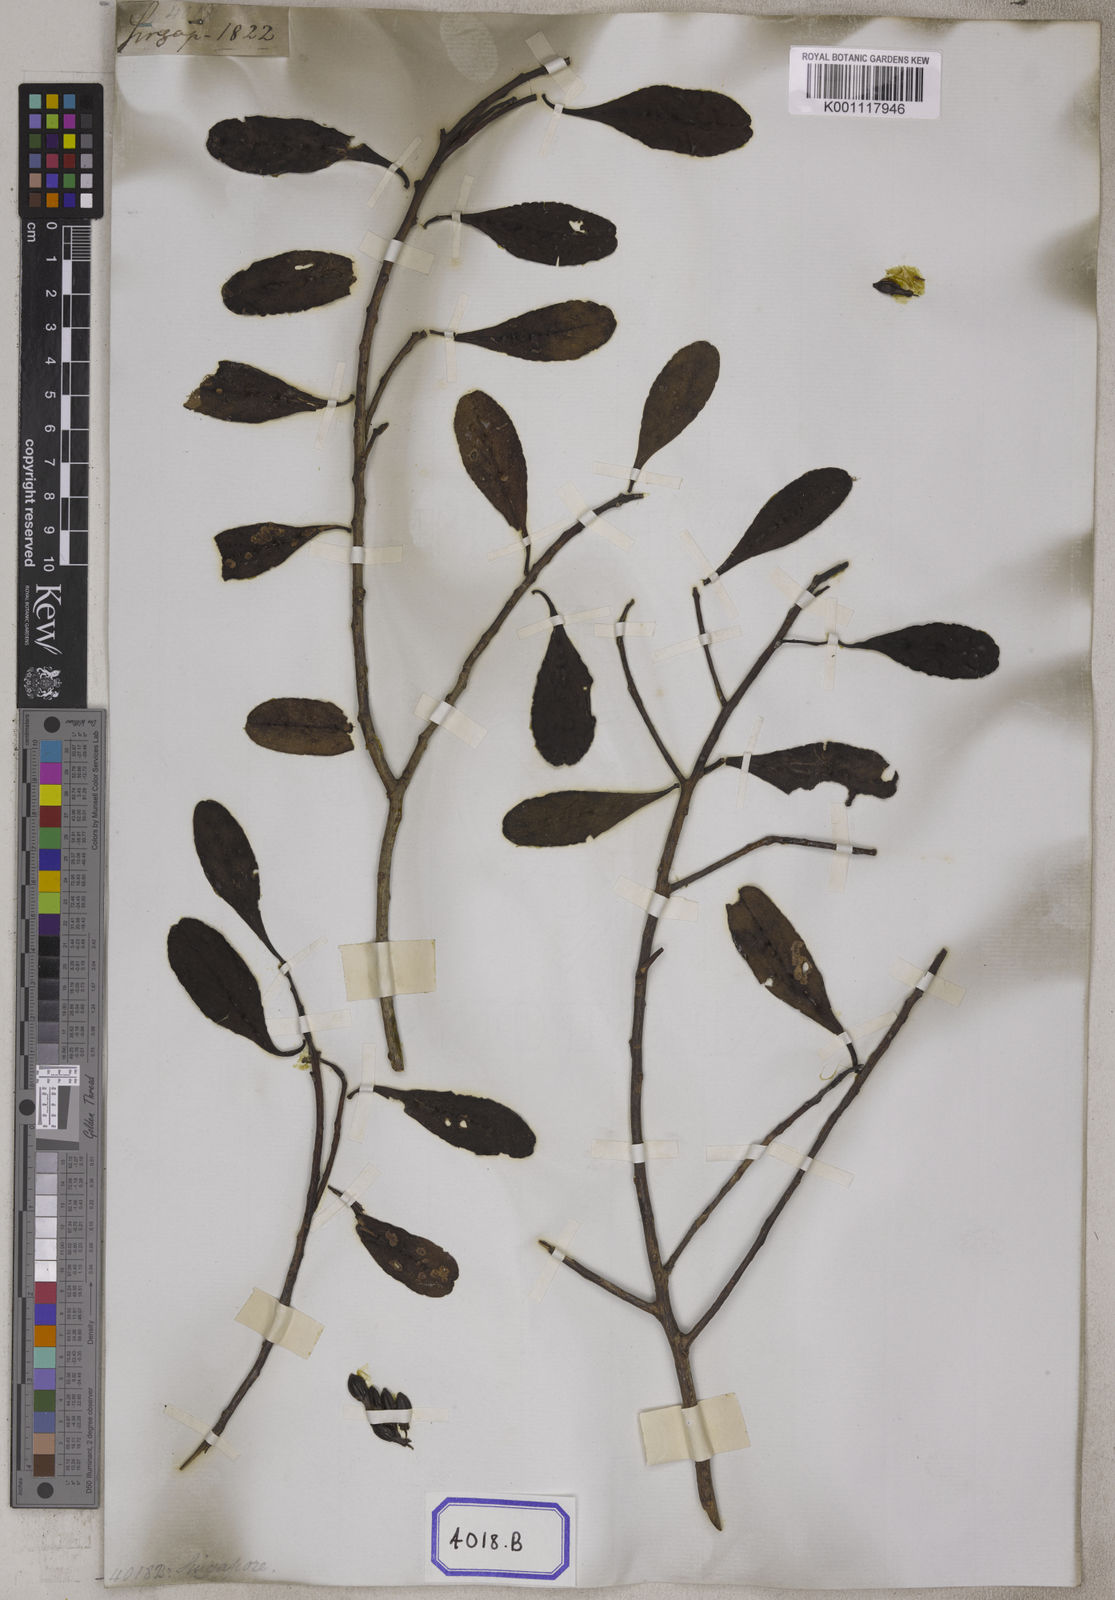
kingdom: Plantae
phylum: Tracheophyta
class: Magnoliopsida
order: Myrtales
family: Combretaceae
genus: Lumnitzera
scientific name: Lumnitzera littorea
